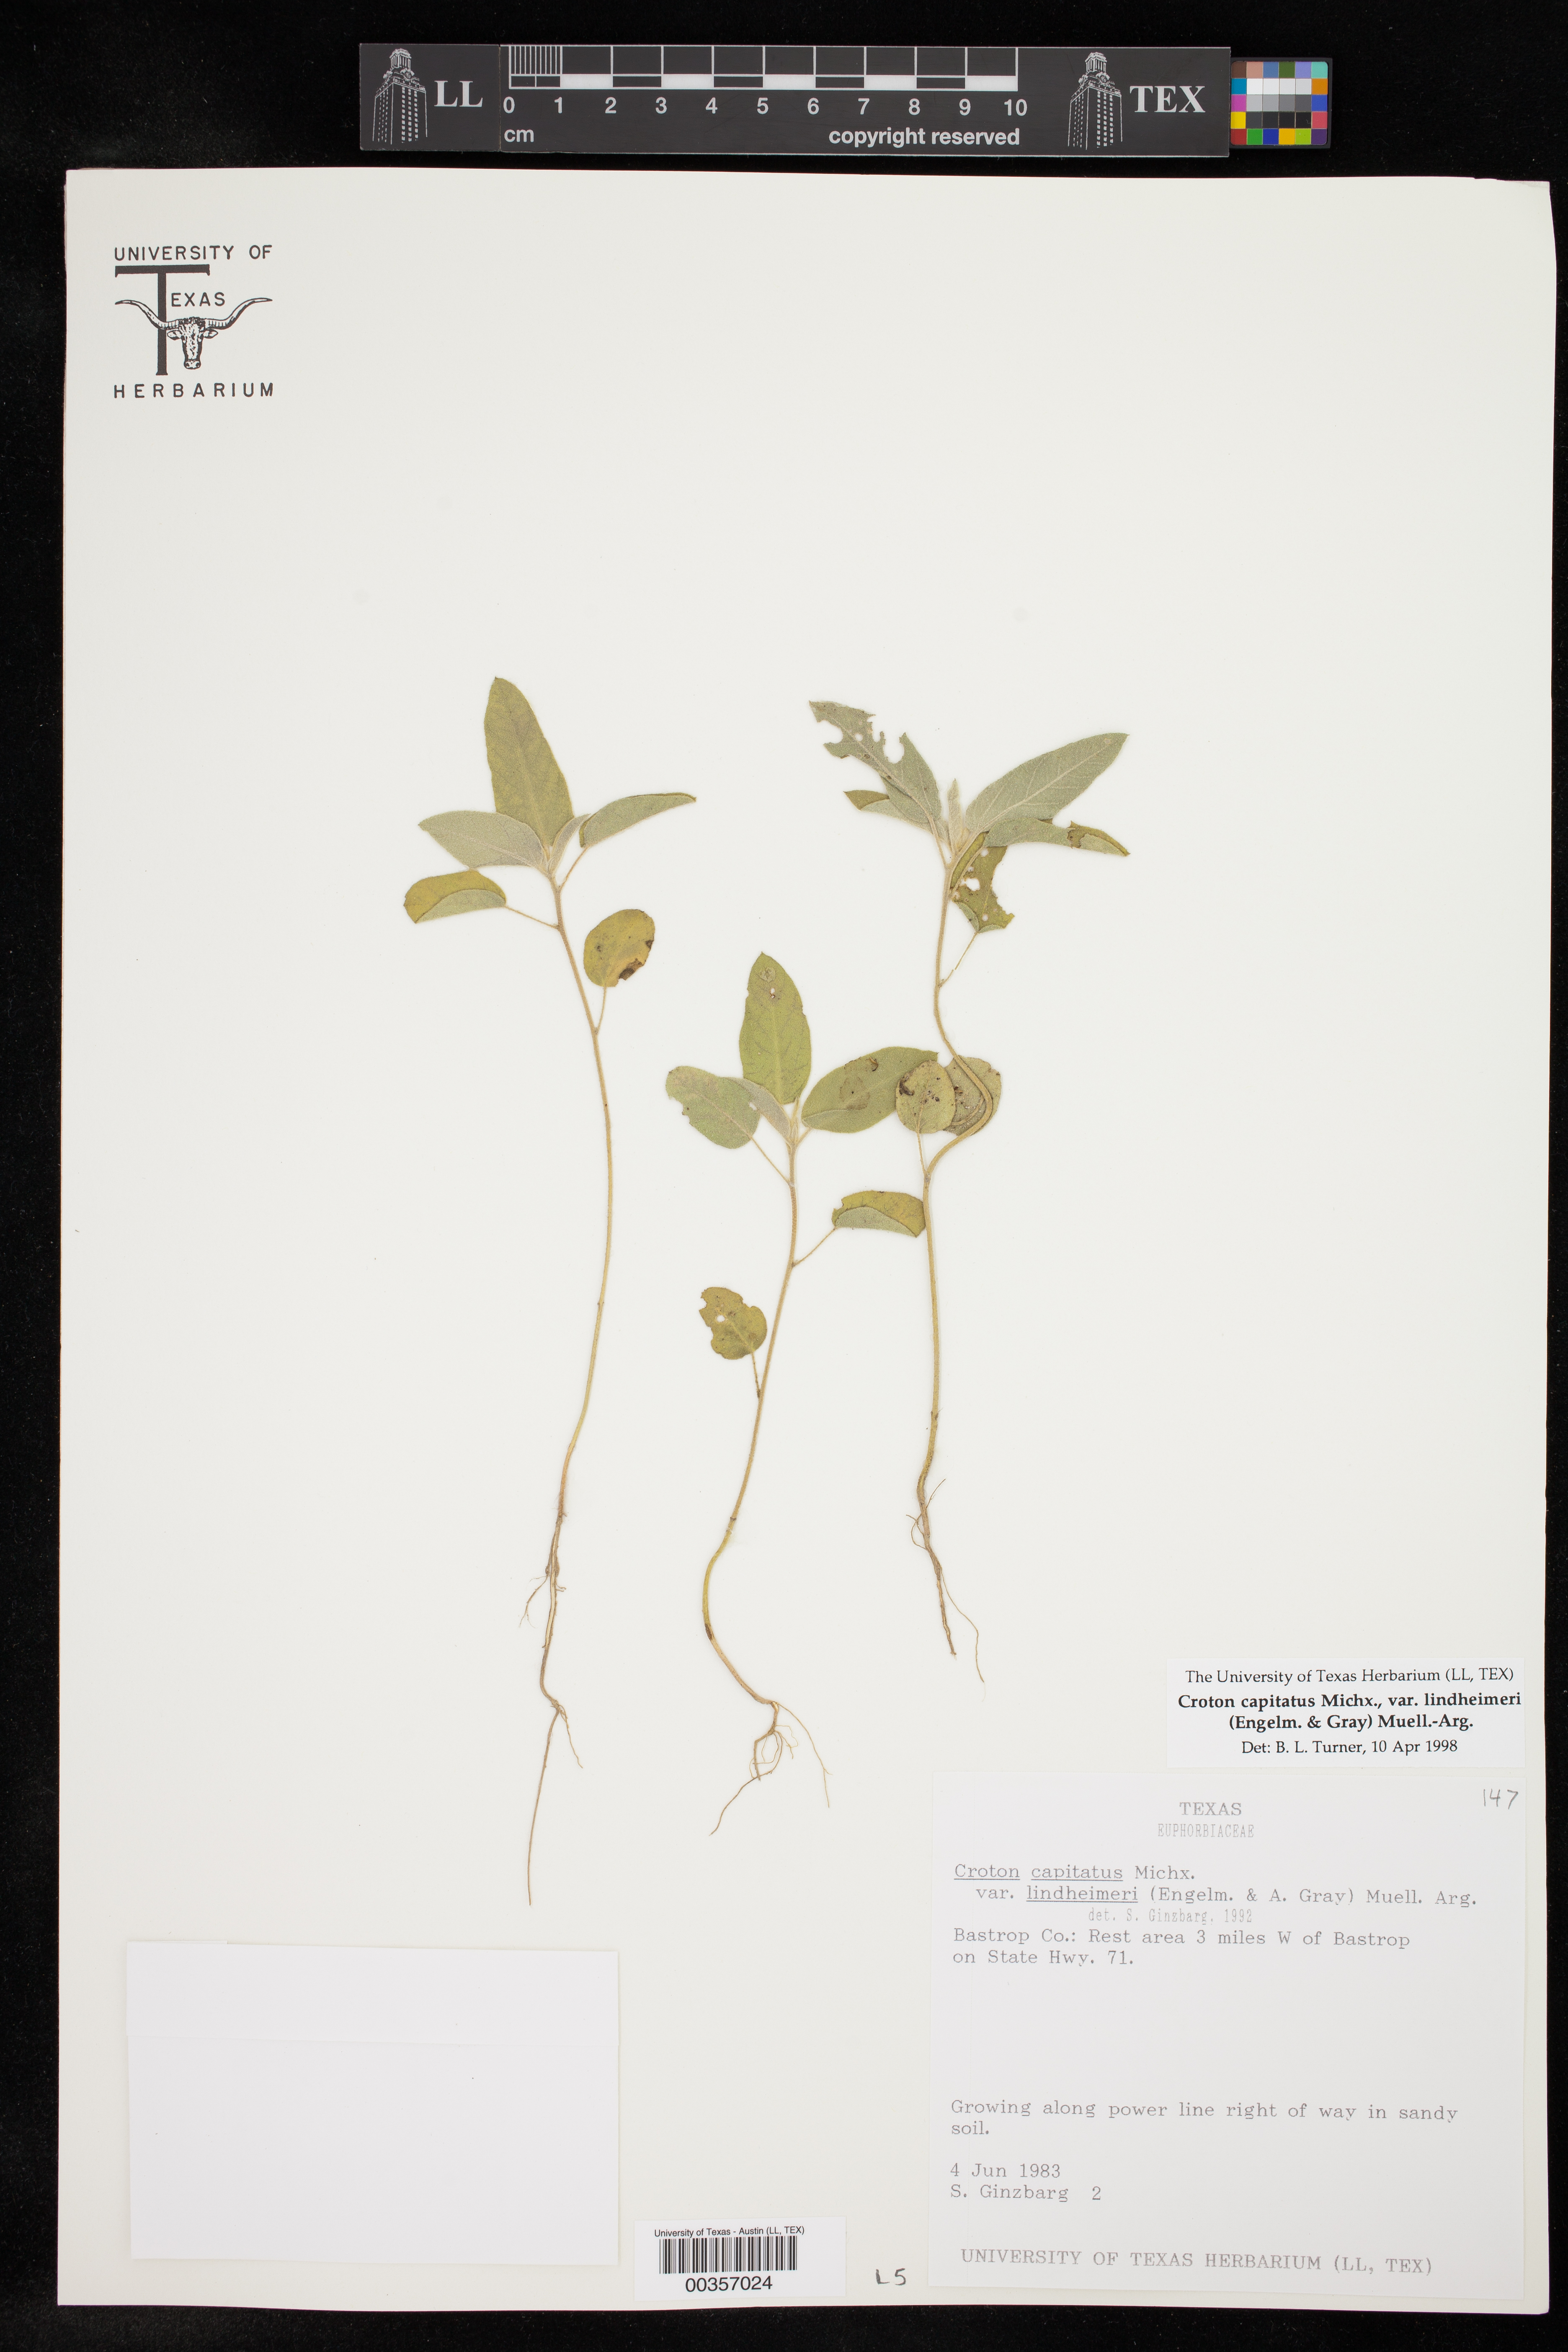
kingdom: Plantae
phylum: Tracheophyta
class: Magnoliopsida
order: Malpighiales
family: Euphorbiaceae
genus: Croton
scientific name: Croton lindheimeri
